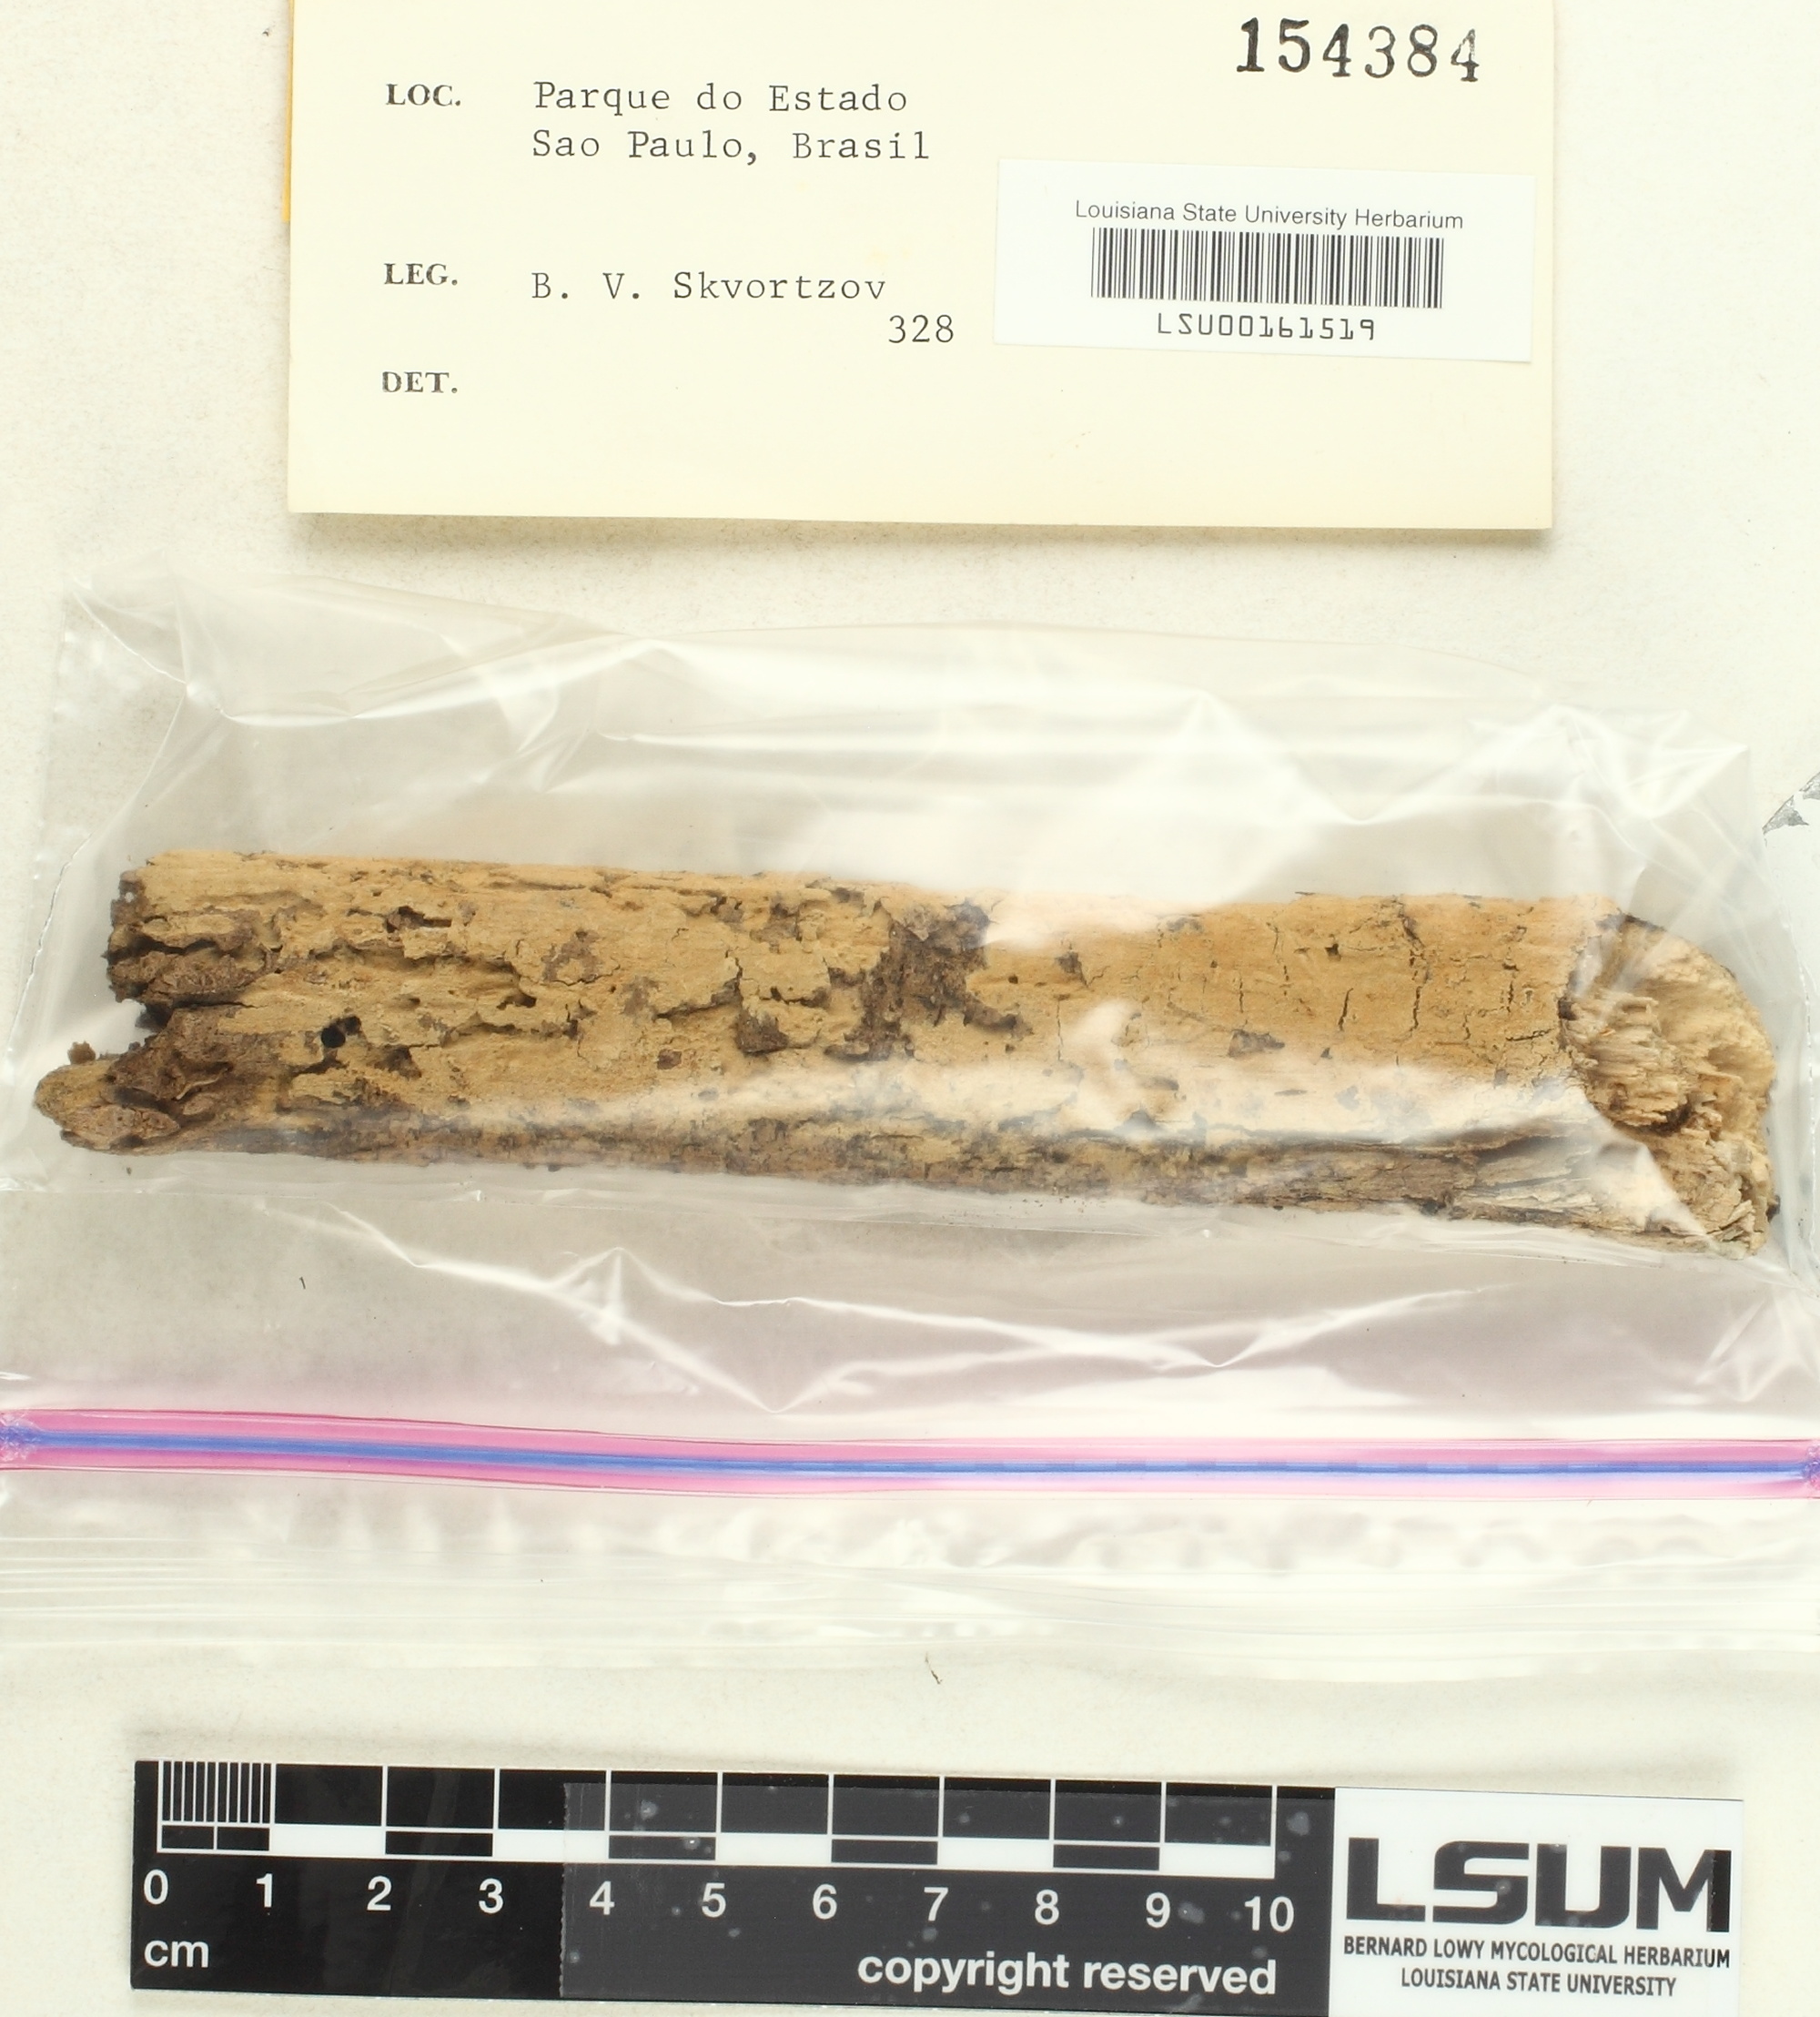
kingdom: Fungi
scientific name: Fungi
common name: Fungi
